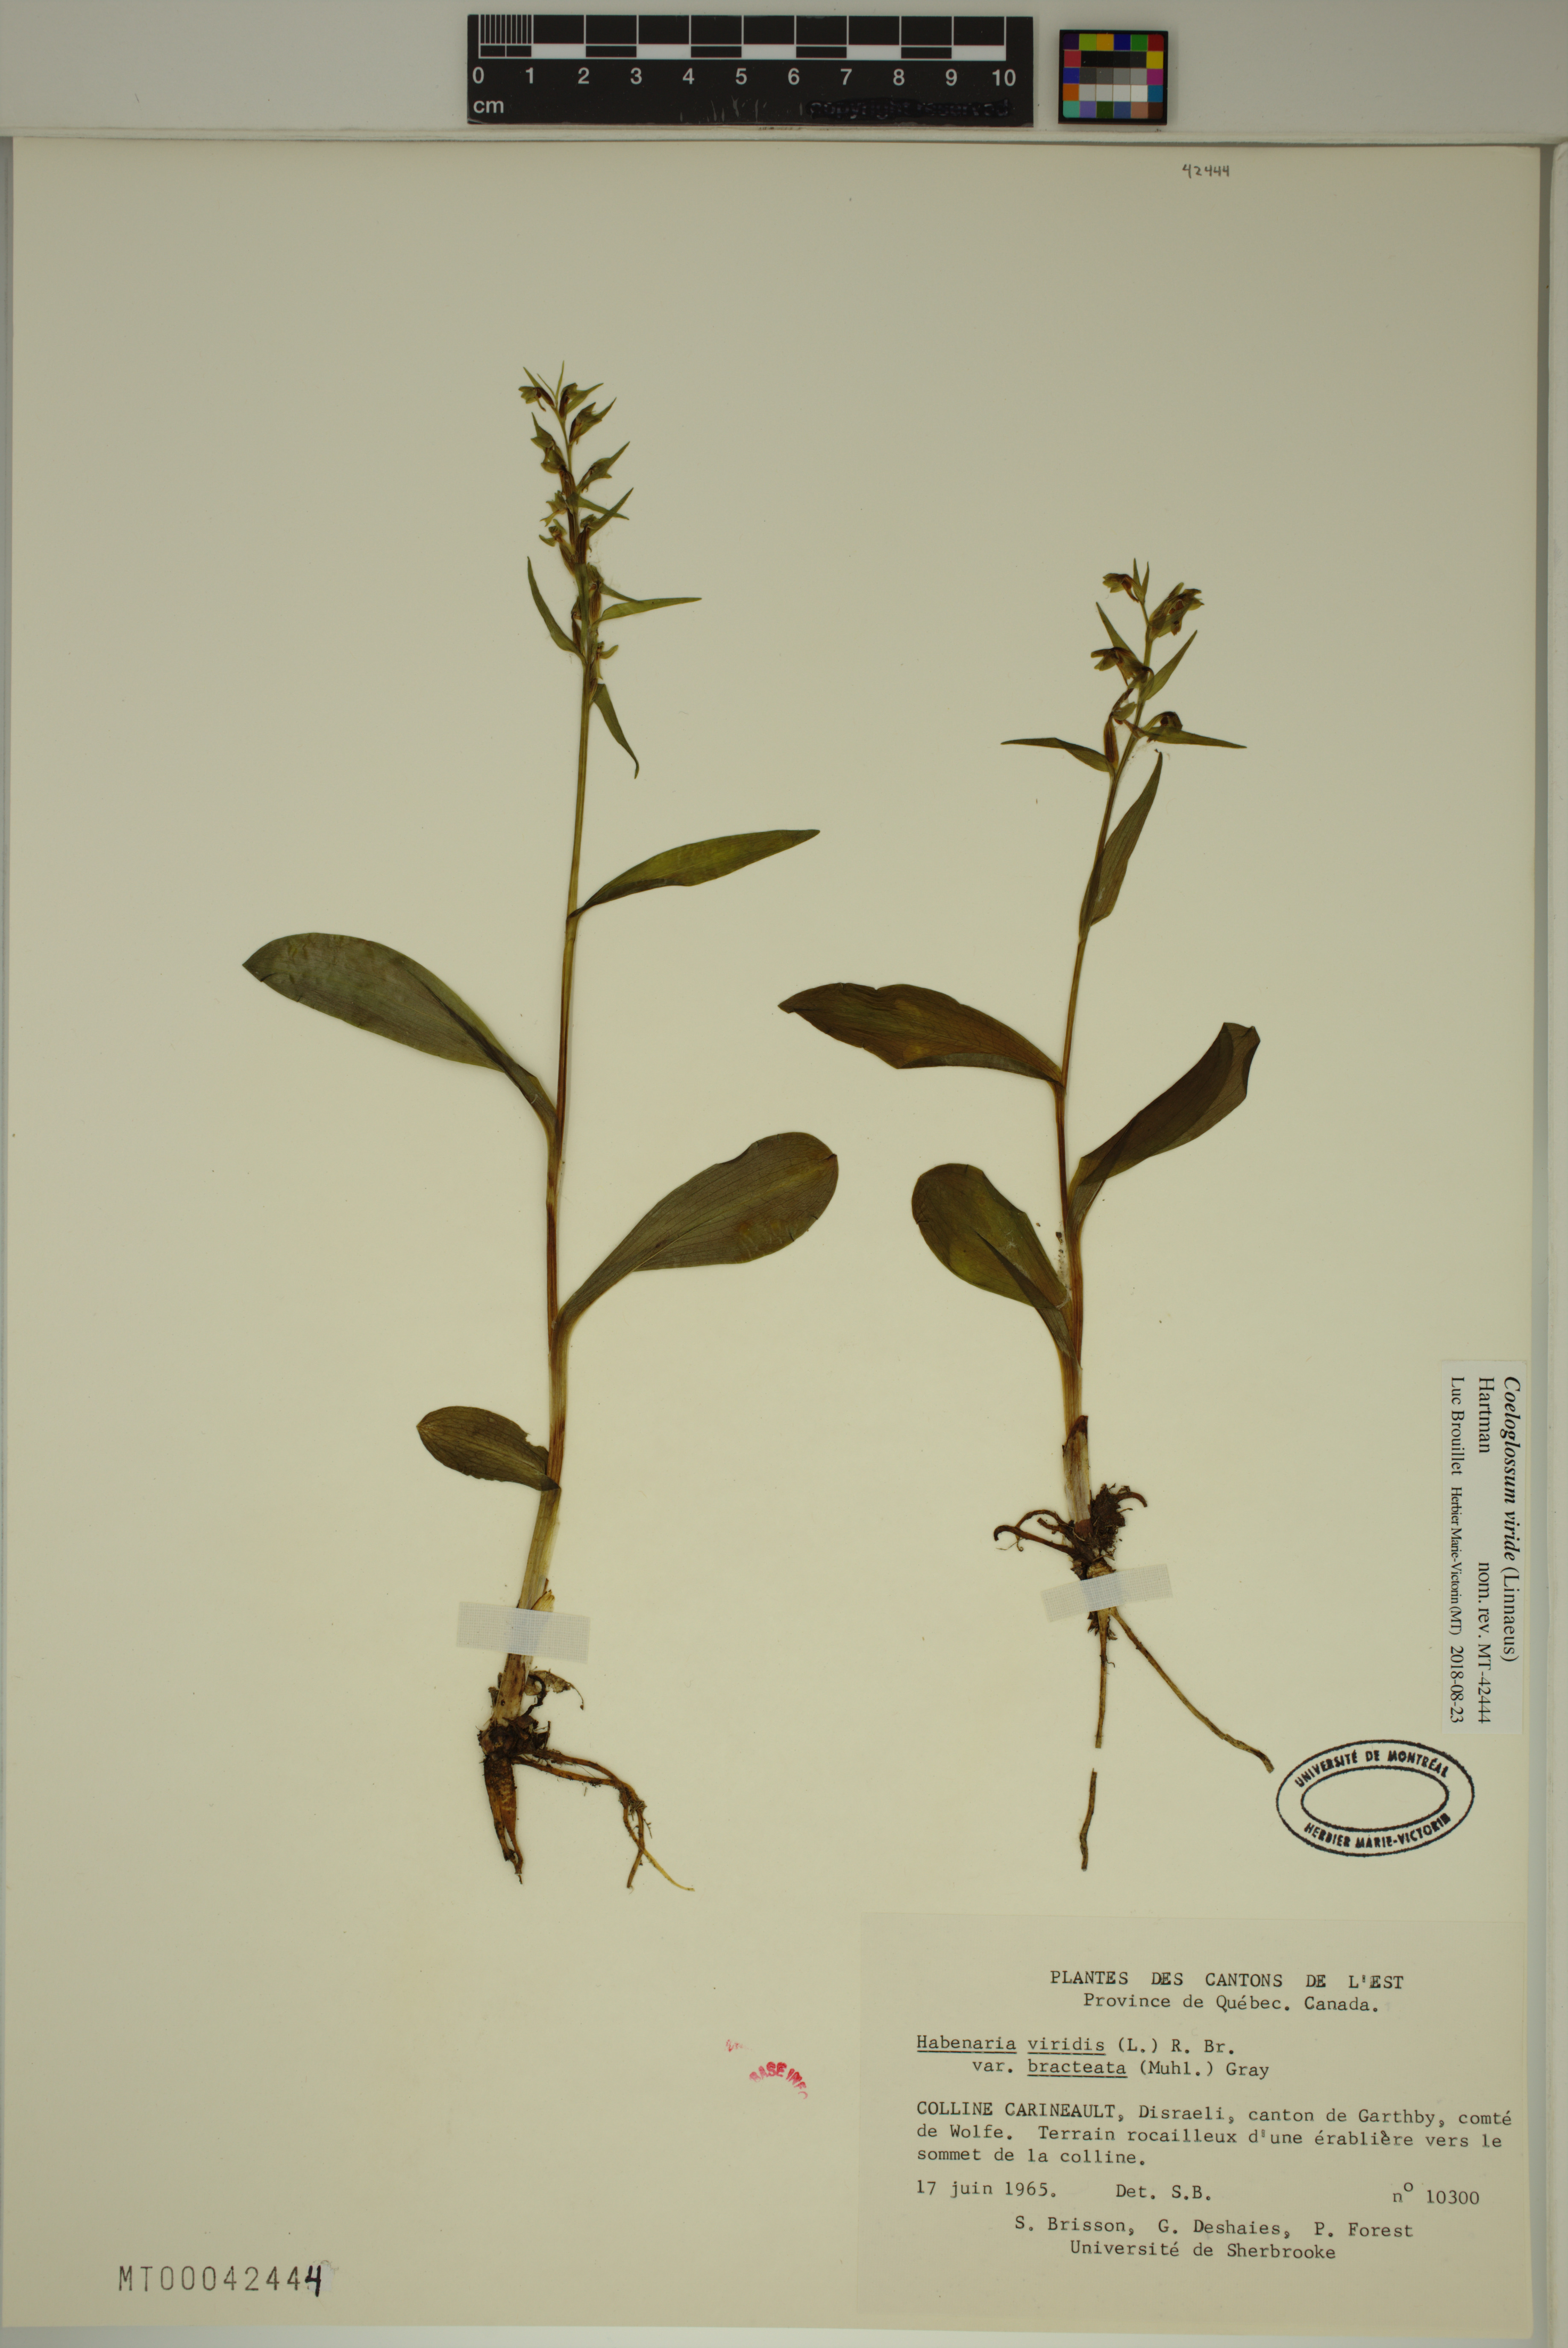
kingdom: Plantae
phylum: Tracheophyta
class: Liliopsida
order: Asparagales
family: Orchidaceae
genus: Dactylorhiza
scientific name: Dactylorhiza viridis
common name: Longbract frog orchid
